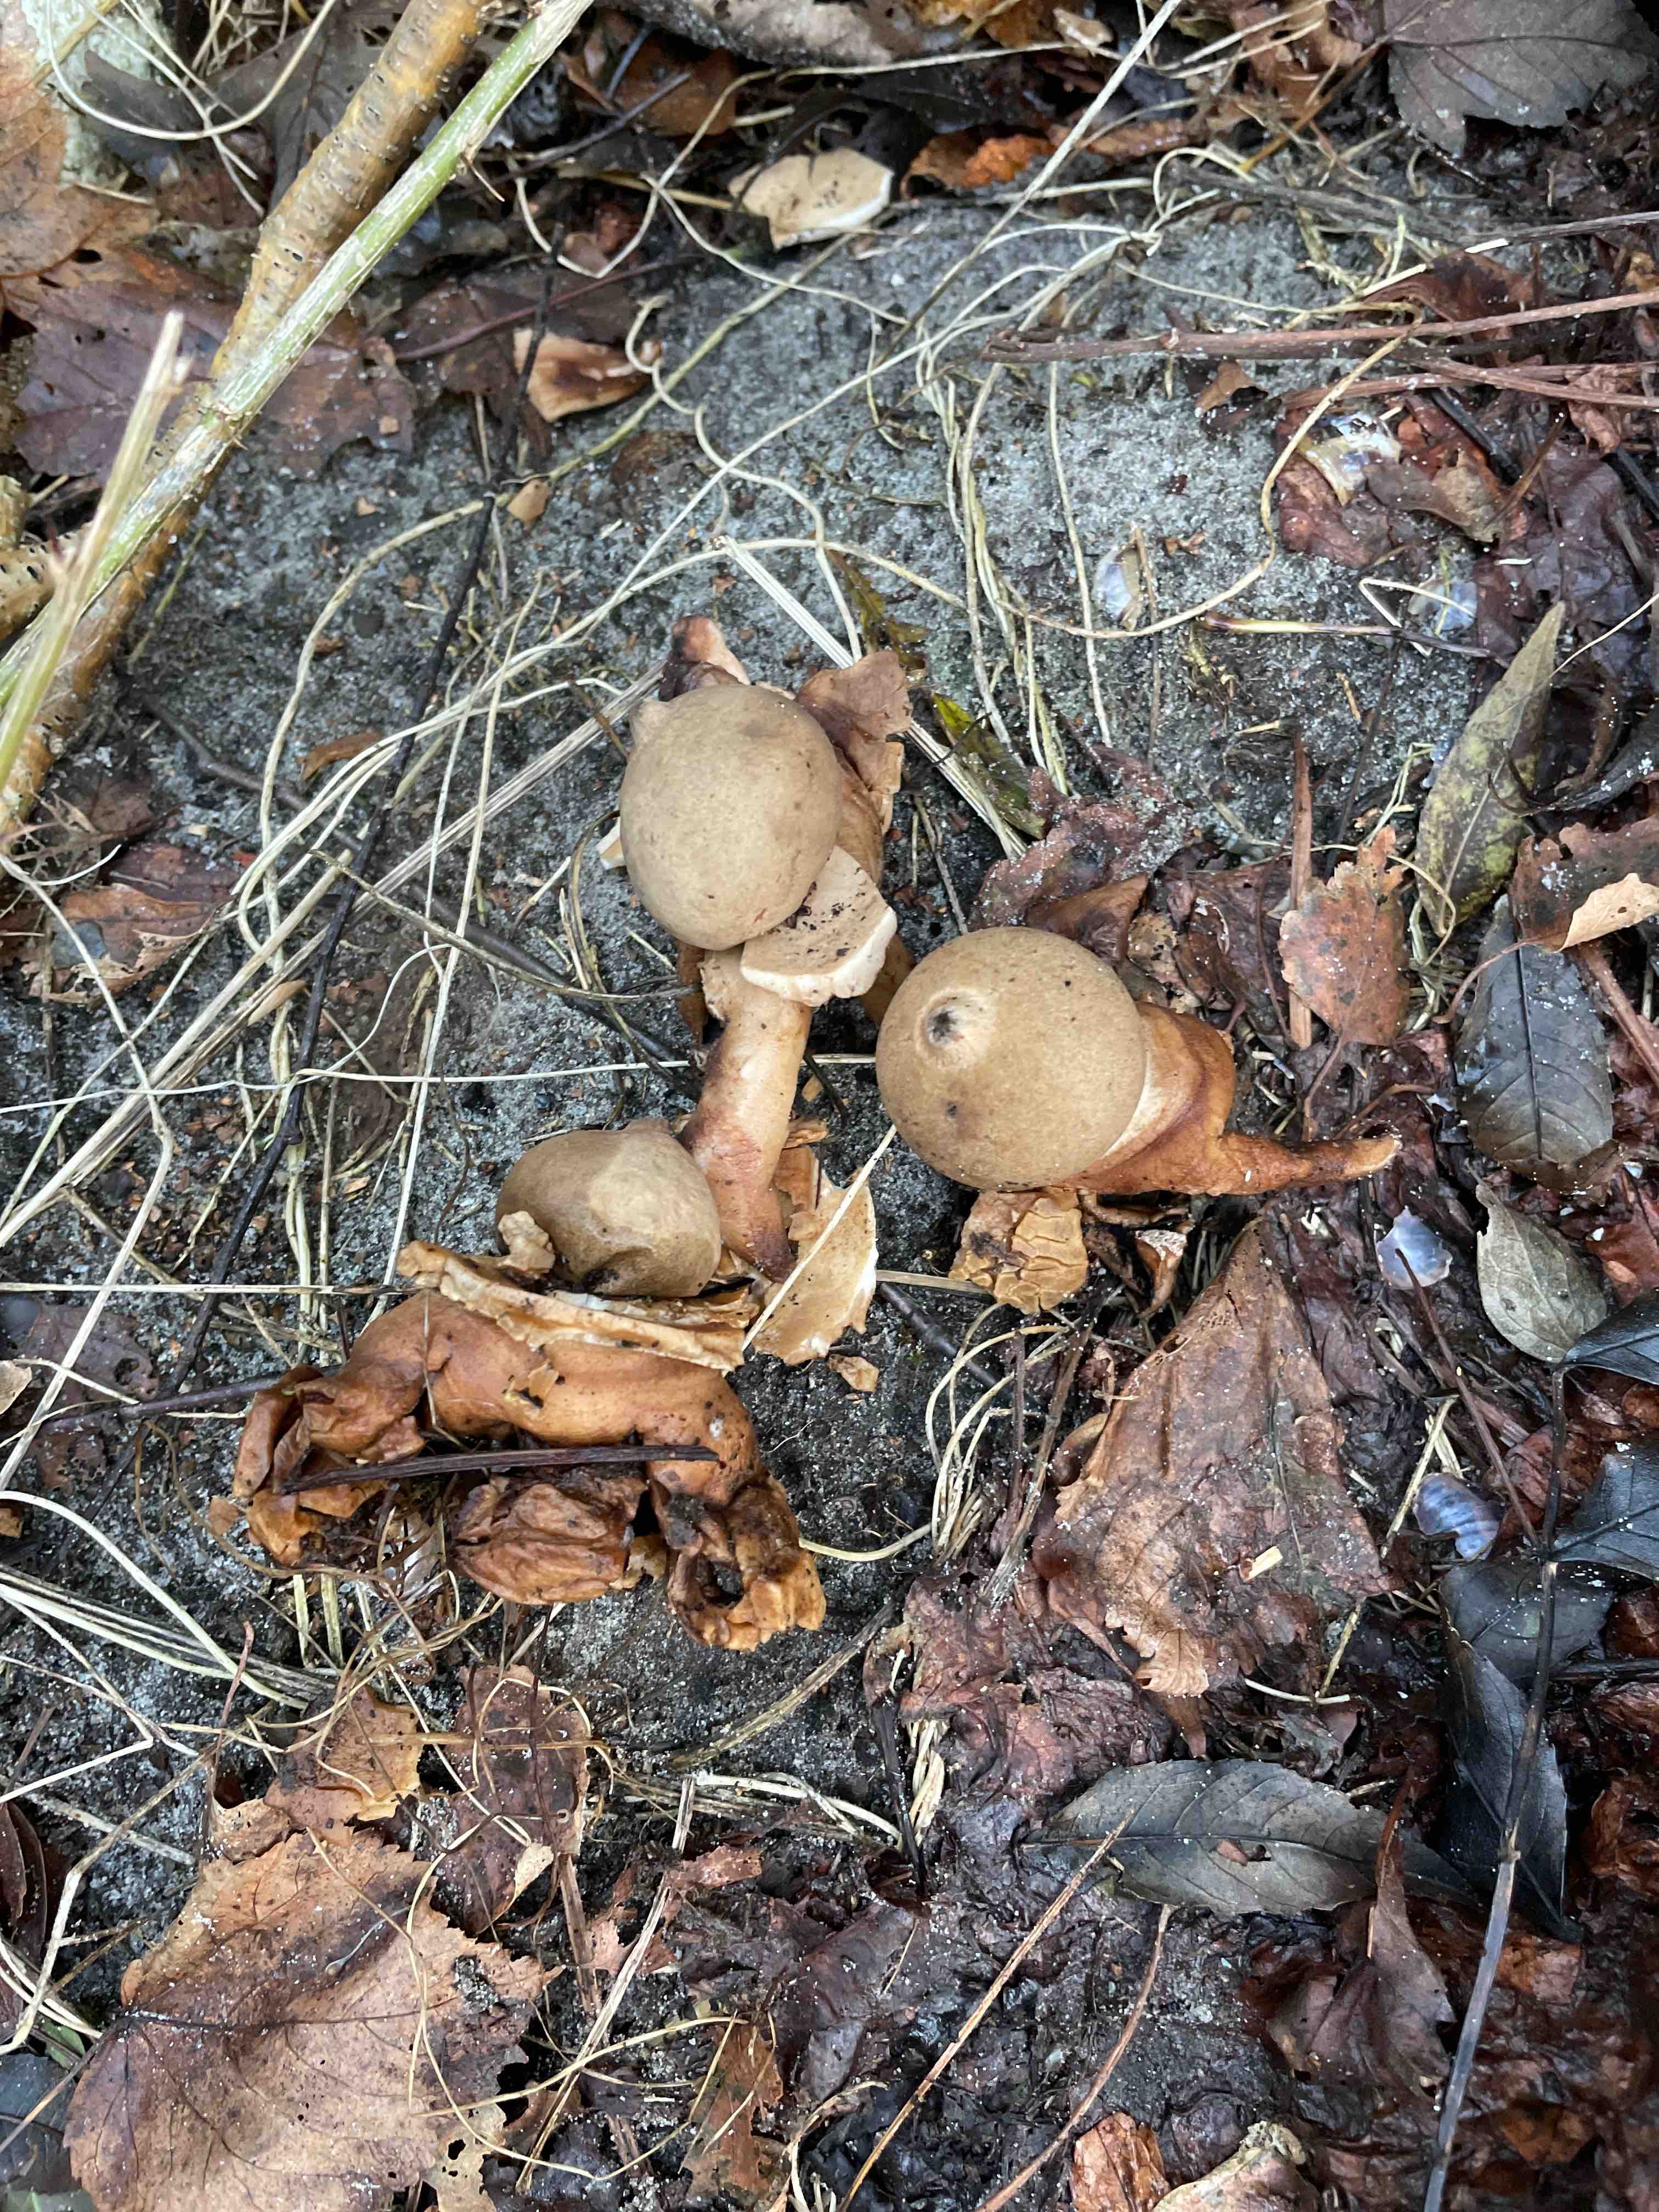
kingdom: Fungi
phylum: Basidiomycota
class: Agaricomycetes
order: Geastrales
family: Geastraceae
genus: Geastrum
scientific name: Geastrum michelianum
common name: kødet stjernebold
